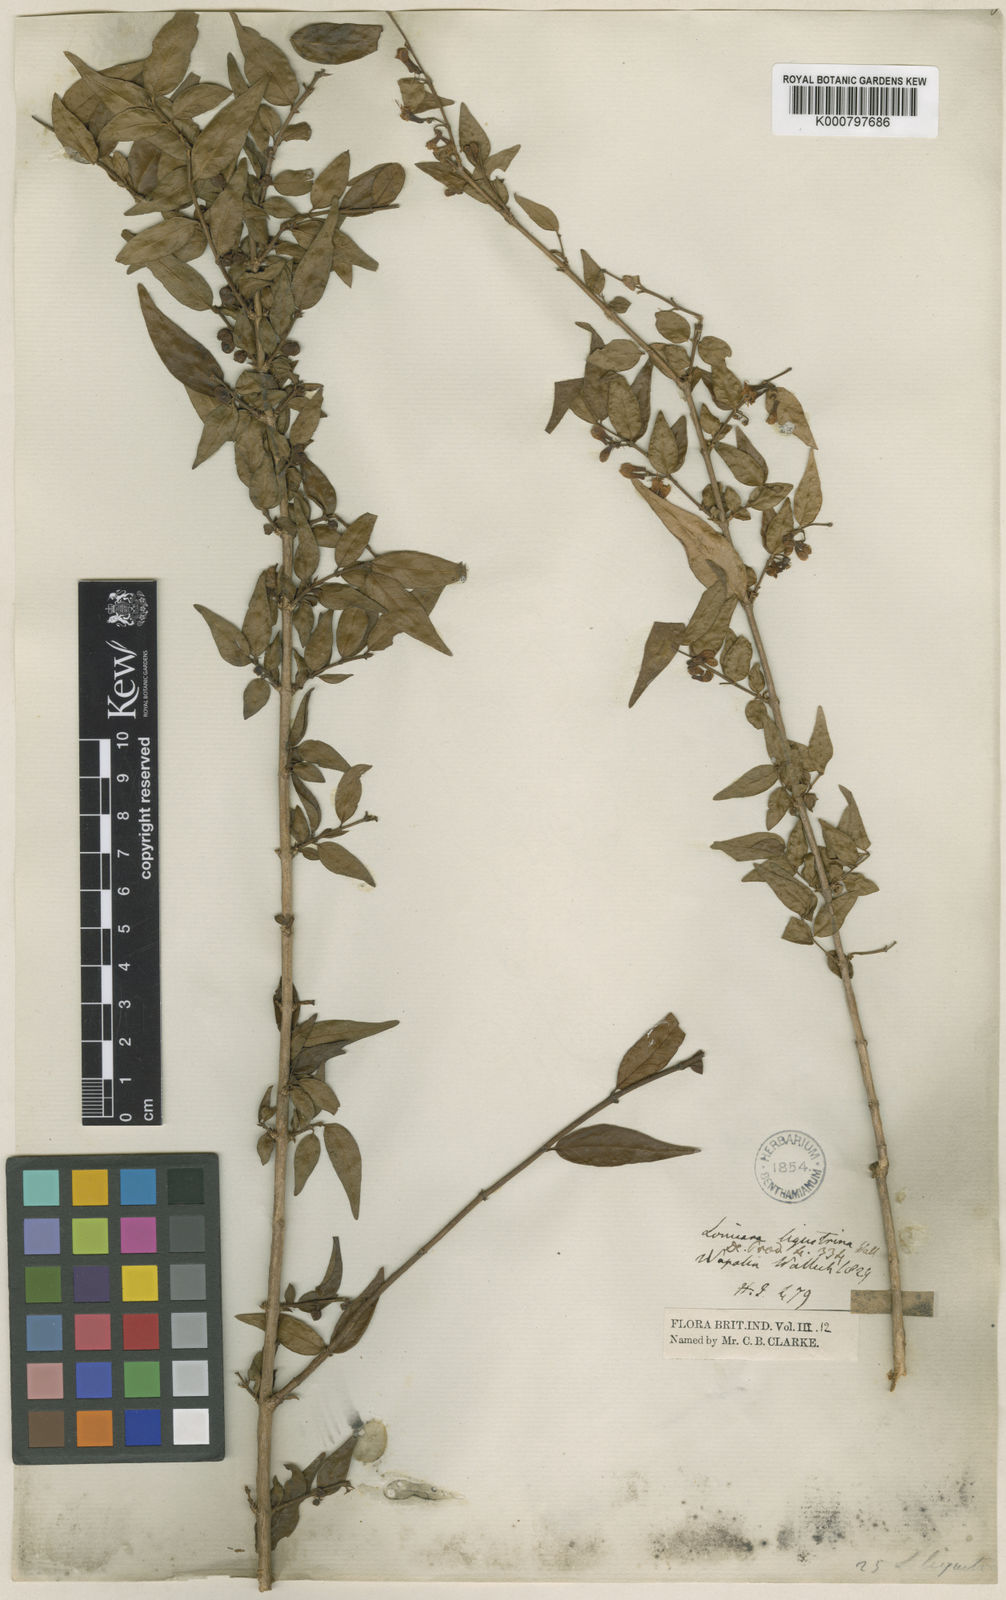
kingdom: Plantae
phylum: Tracheophyta
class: Magnoliopsida
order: Dipsacales
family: Caprifoliaceae
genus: Lonicera
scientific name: Lonicera ligustrina
